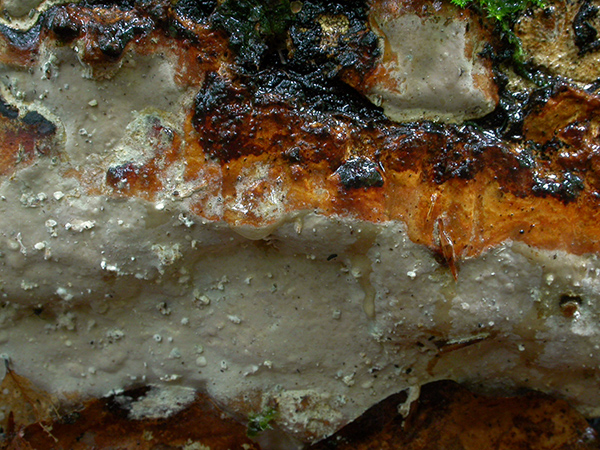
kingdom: Fungi
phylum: Basidiomycota
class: Agaricomycetes
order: Russulales
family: Peniophoraceae
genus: Scytinostroma
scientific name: Scytinostroma hemidichophyticum
